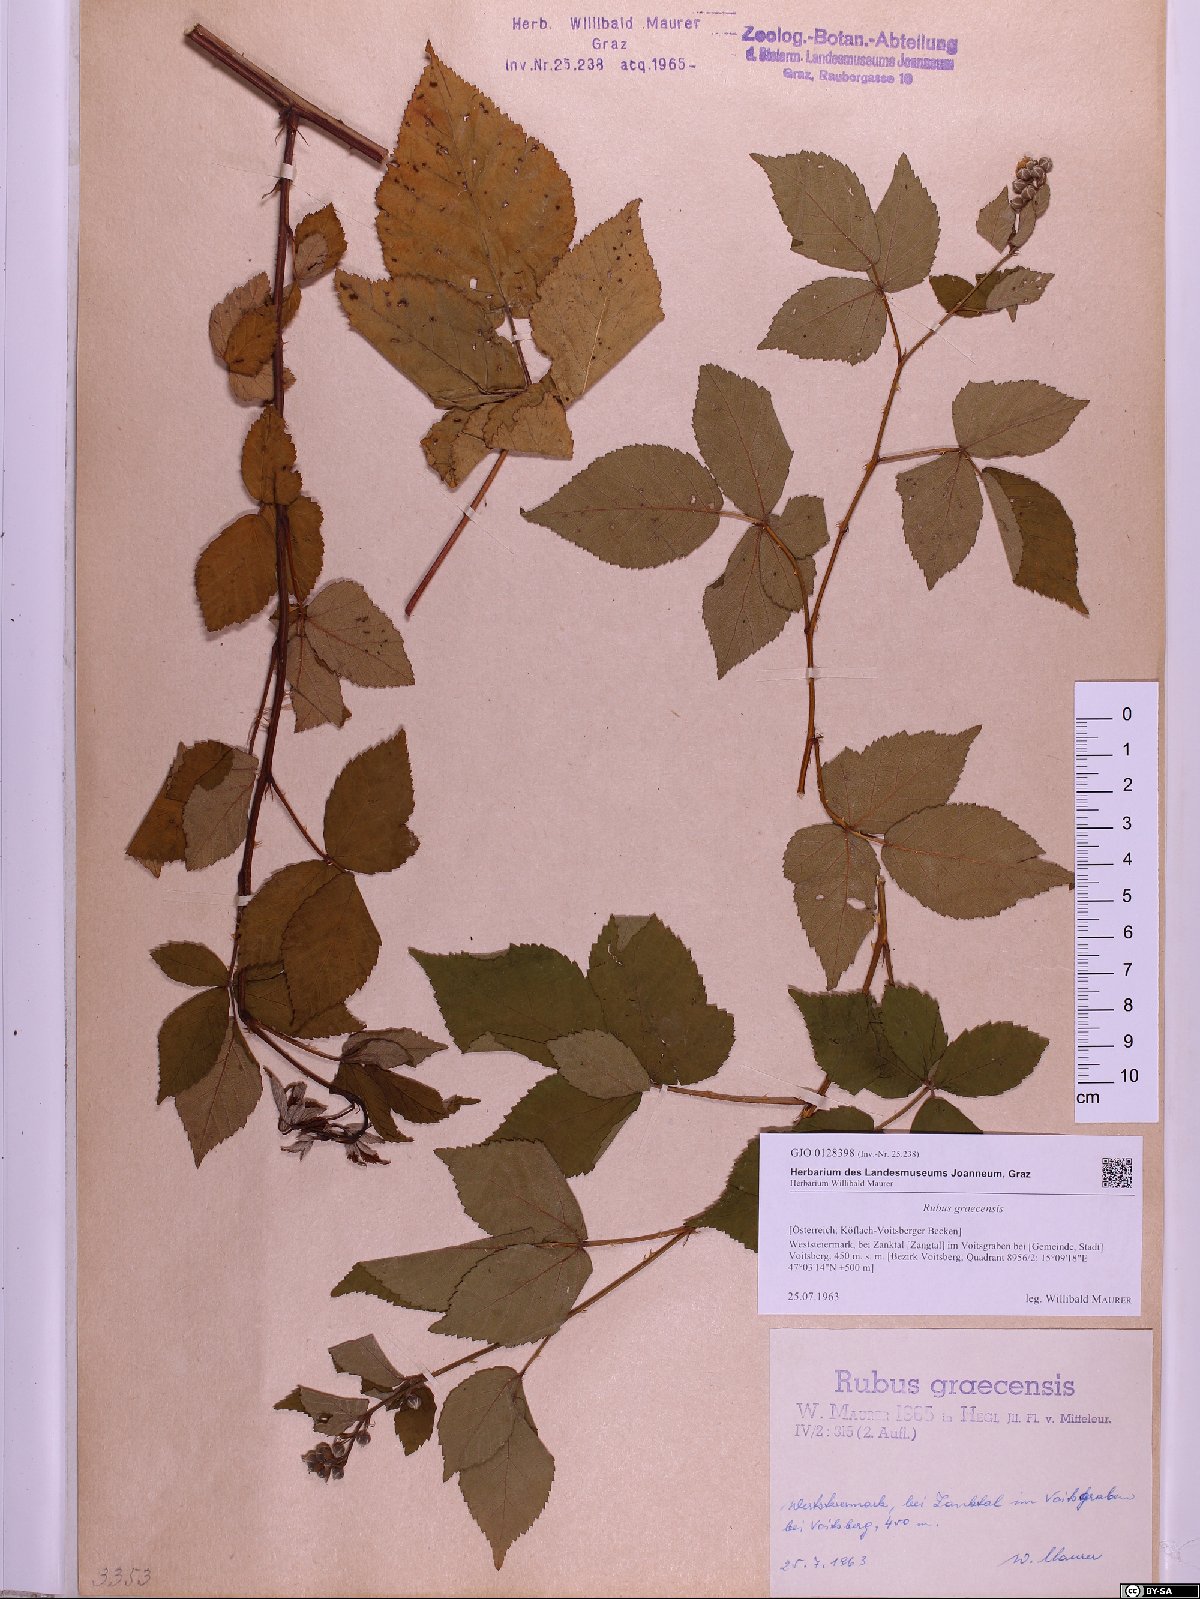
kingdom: Plantae
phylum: Tracheophyta
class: Magnoliopsida
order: Rosales
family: Rosaceae
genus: Rubus
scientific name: Rubus graecensis
